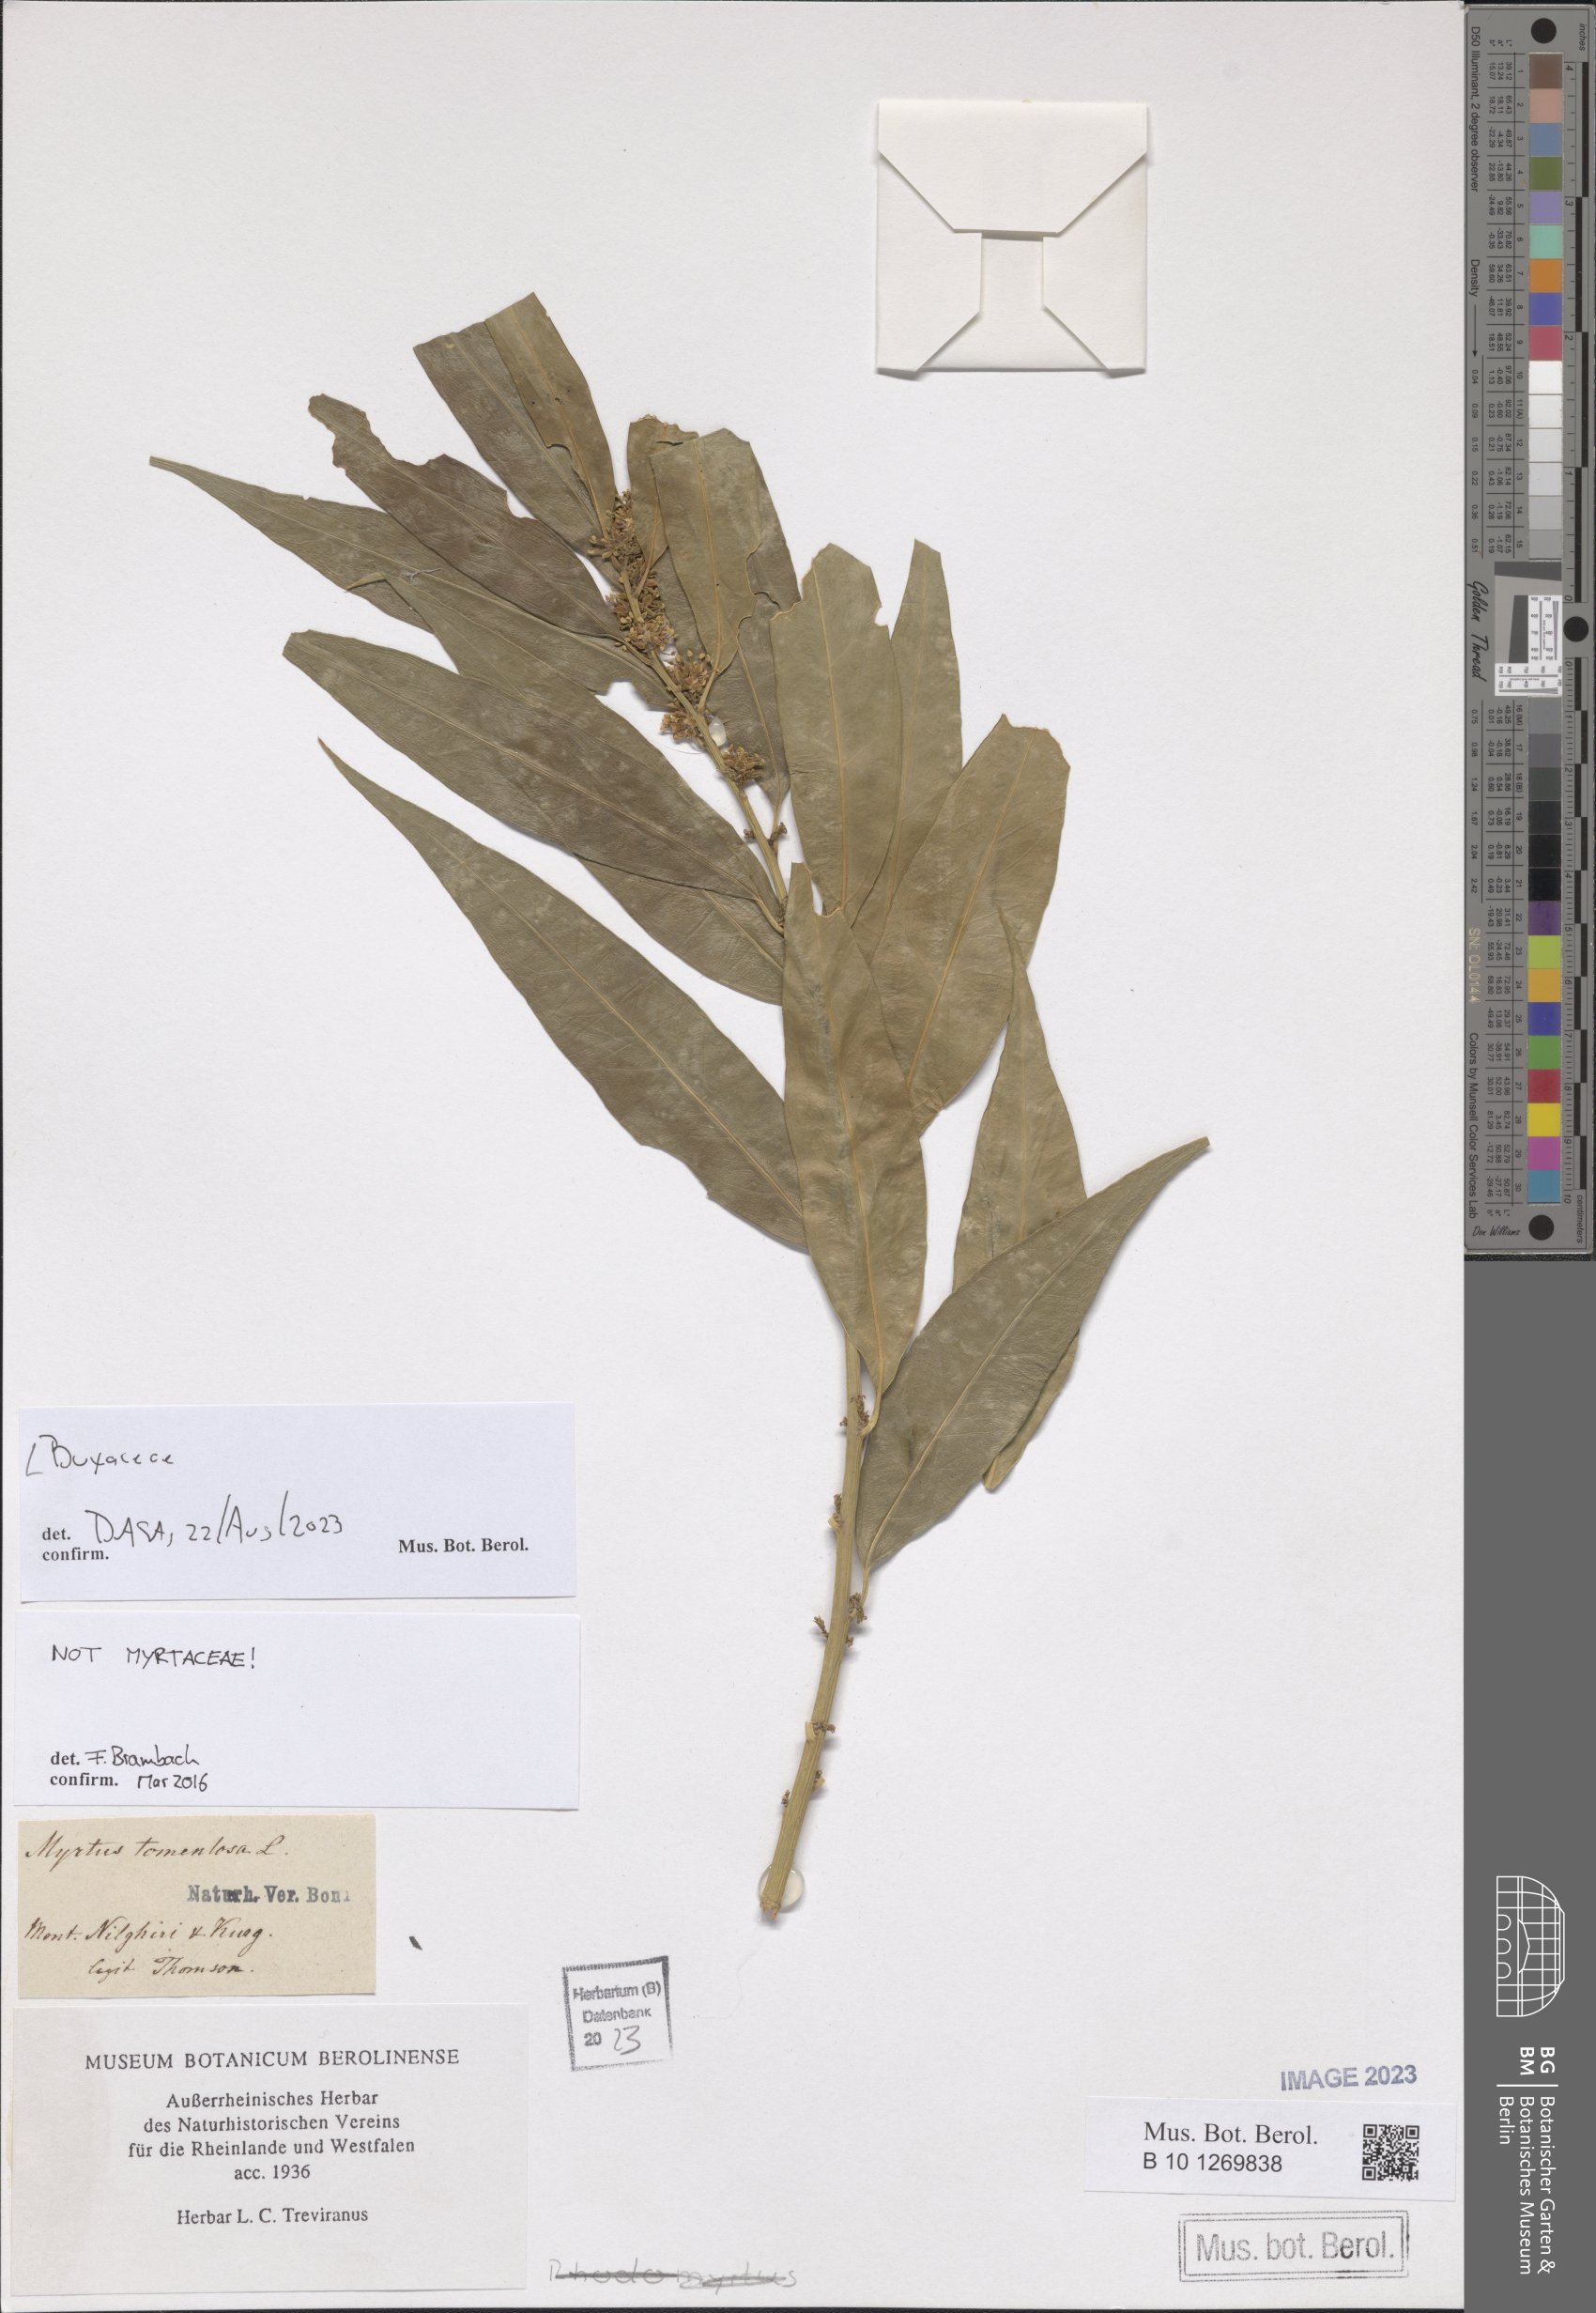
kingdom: Plantae
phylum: Tracheophyta
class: Magnoliopsida
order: Buxales
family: Buxaceae
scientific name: Buxaceae
